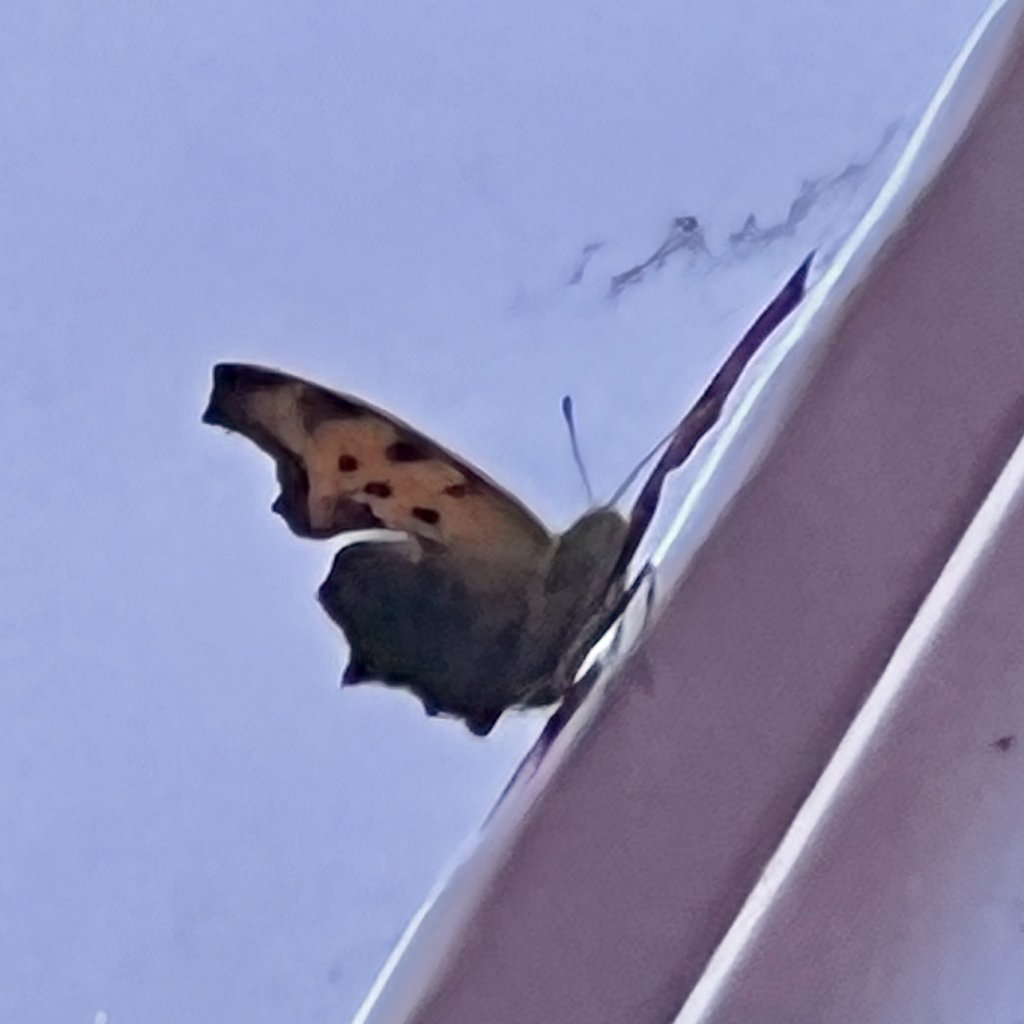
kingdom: Animalia
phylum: Arthropoda
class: Insecta
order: Lepidoptera
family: Nymphalidae
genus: Polygonia
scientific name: Polygonia
